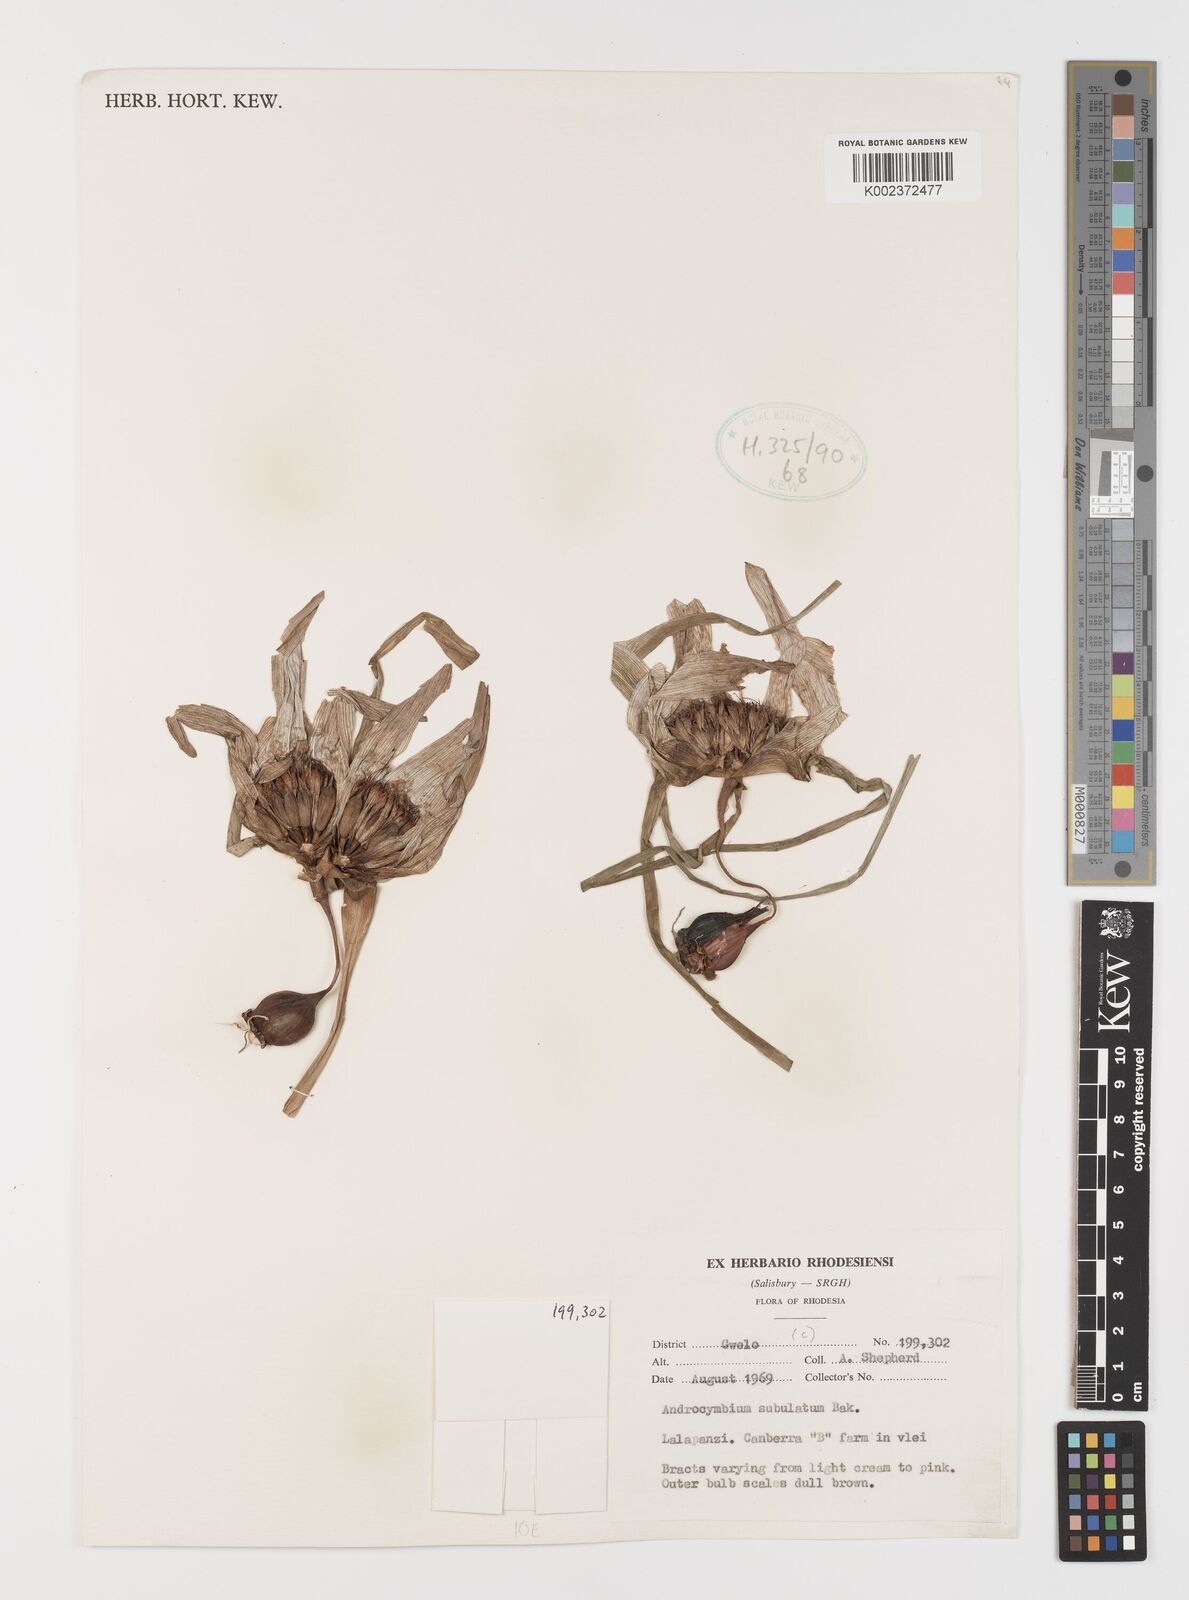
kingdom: Plantae
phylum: Tracheophyta
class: Liliopsida
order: Liliales
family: Colchicaceae
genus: Colchicum
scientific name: Colchicum melanthioides
